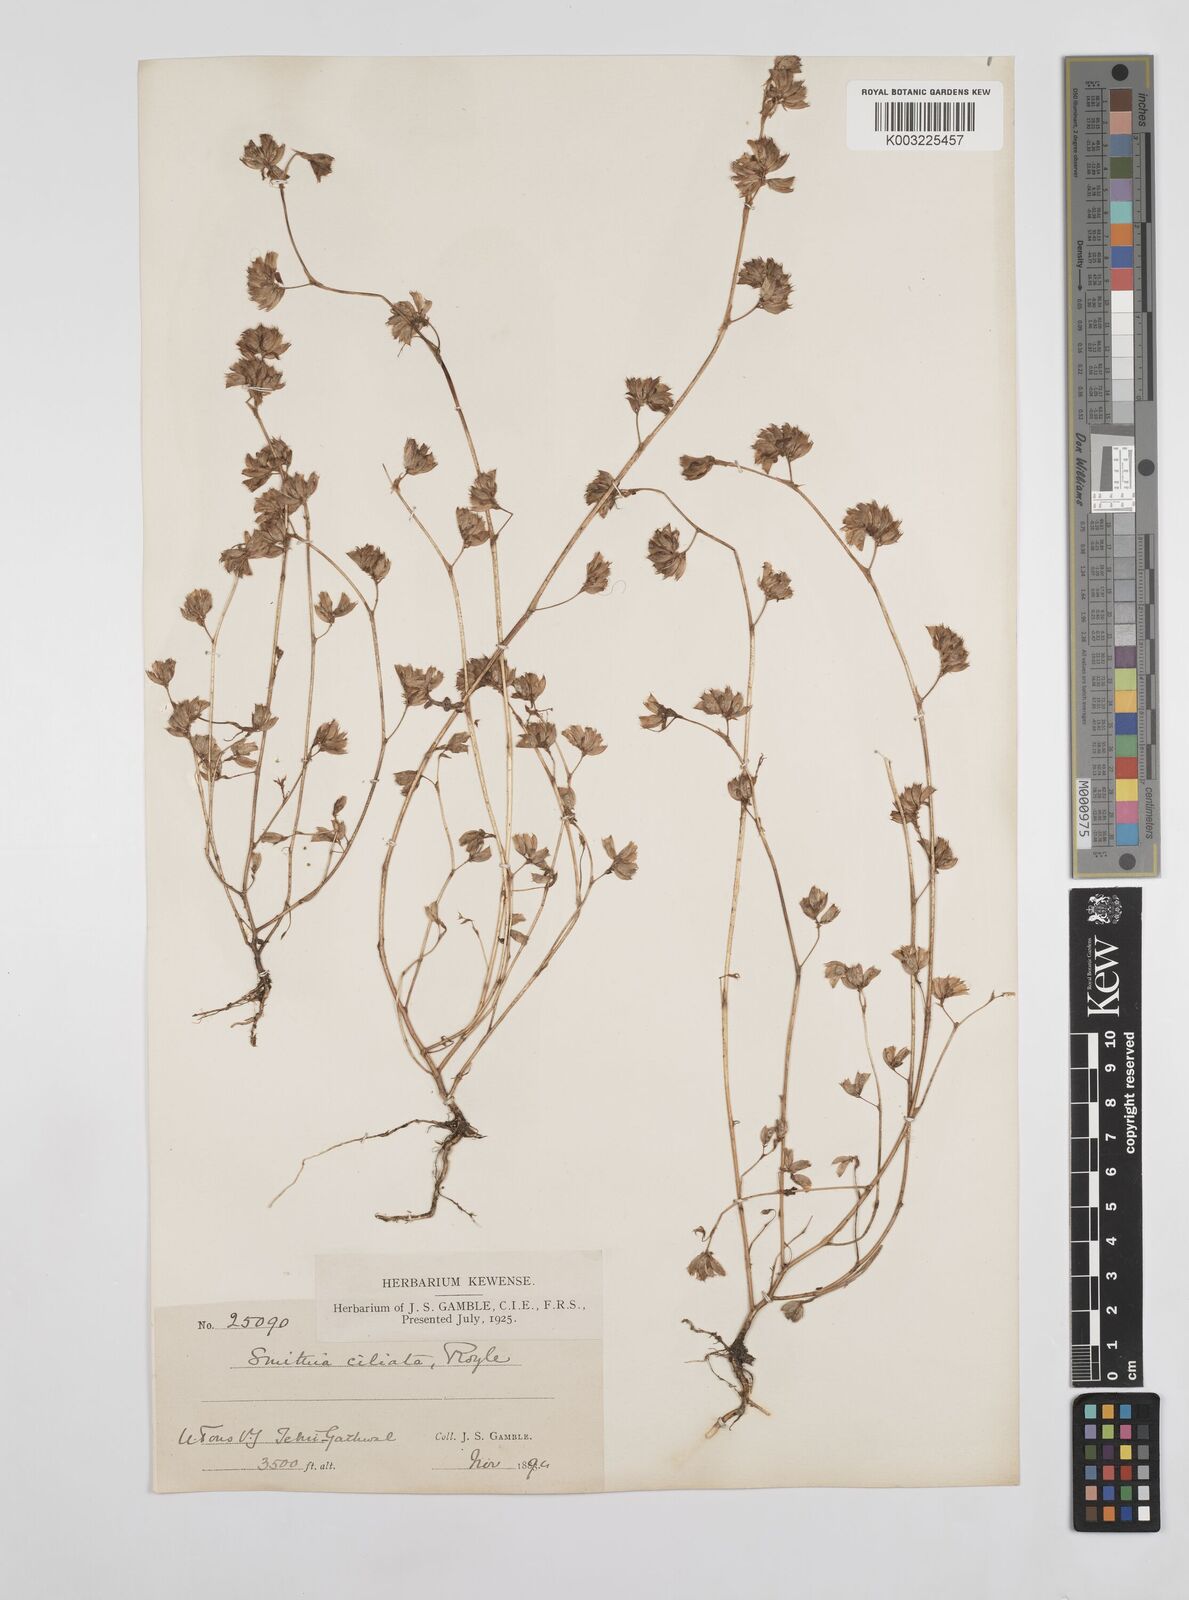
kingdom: Plantae
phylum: Tracheophyta
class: Magnoliopsida
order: Fabales
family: Fabaceae
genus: Smithia
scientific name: Smithia ciliata
